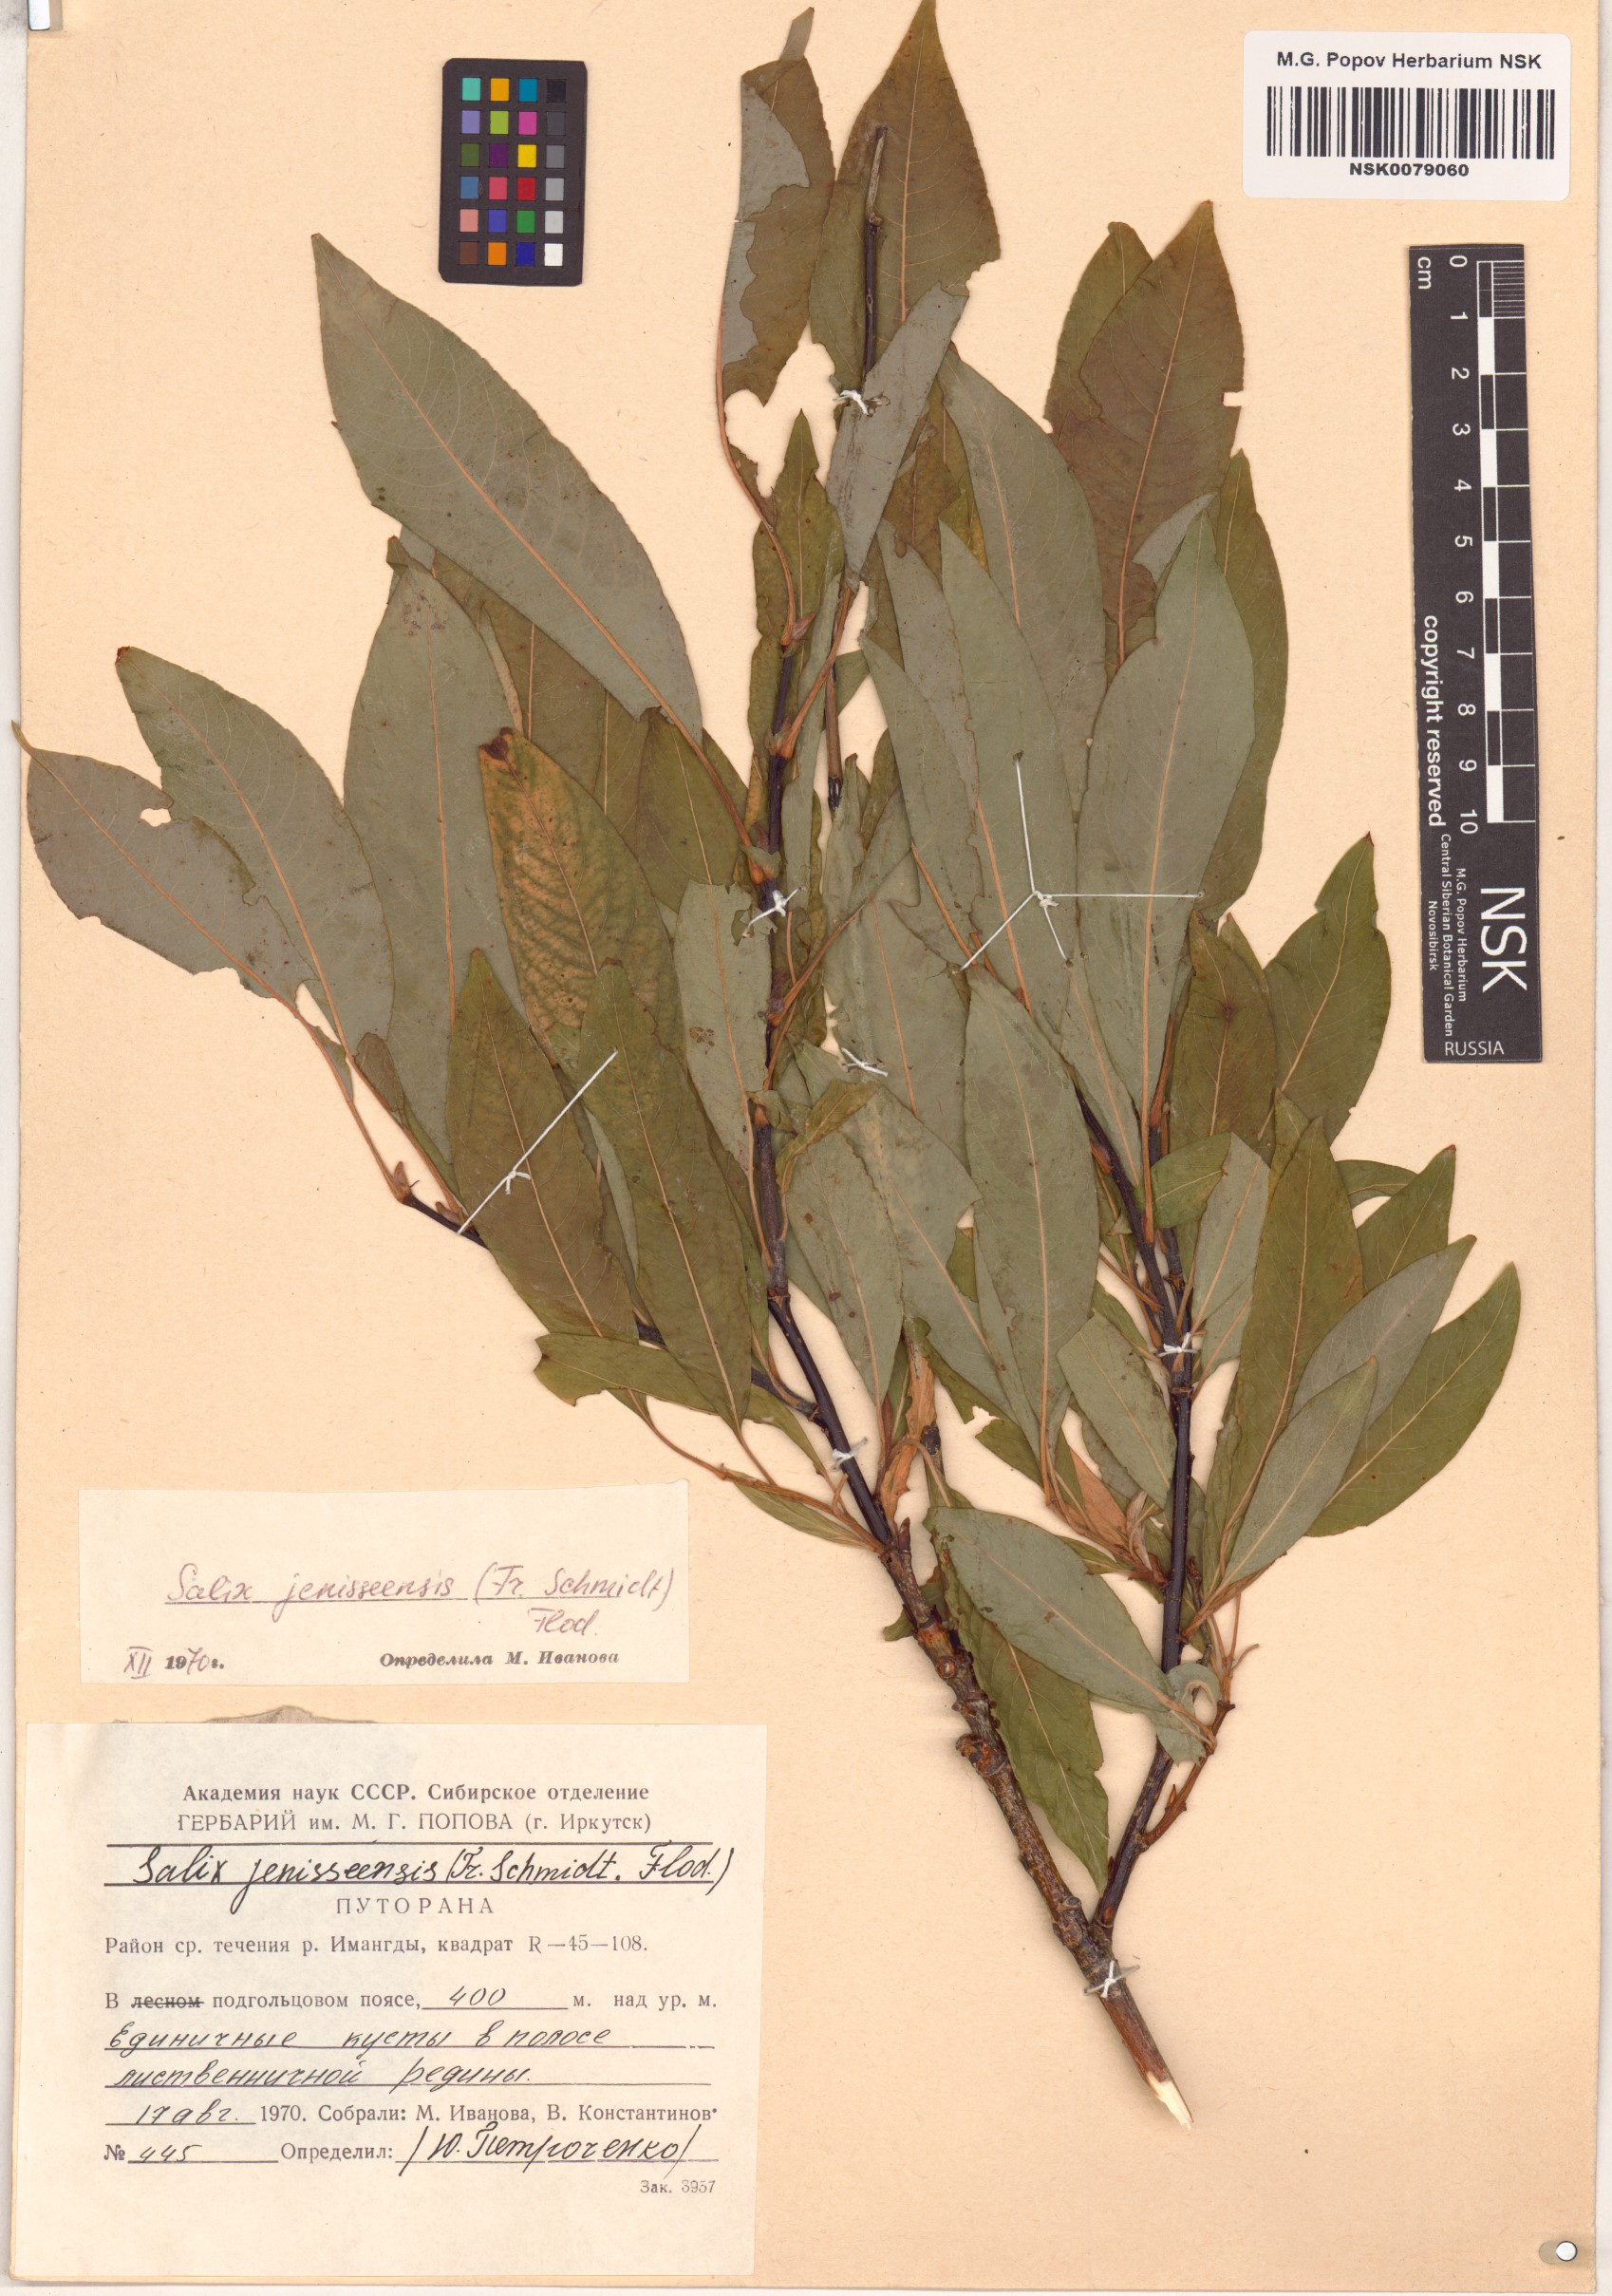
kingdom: Plantae
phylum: Tracheophyta
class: Magnoliopsida
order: Malpighiales
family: Salicaceae
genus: Salix
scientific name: Salix jenisseensis
